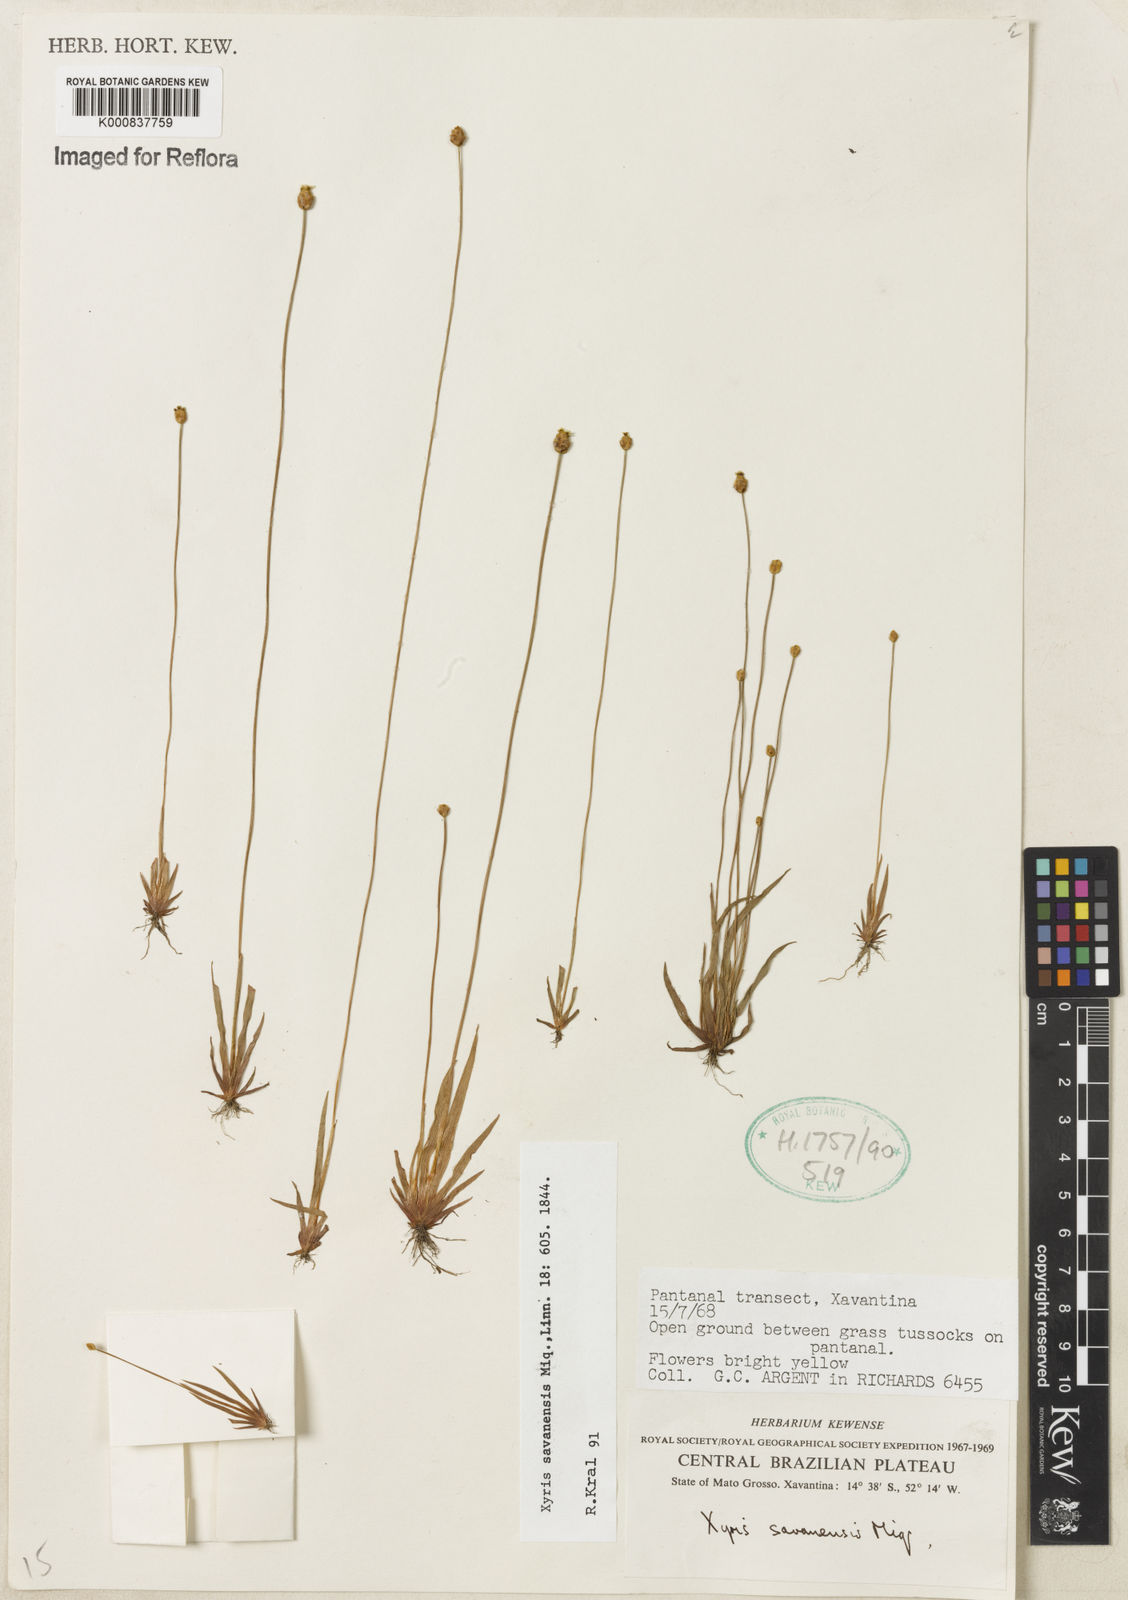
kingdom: Plantae
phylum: Tracheophyta
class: Liliopsida
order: Poales
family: Xyridaceae
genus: Xyris
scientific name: Xyris savanensis
